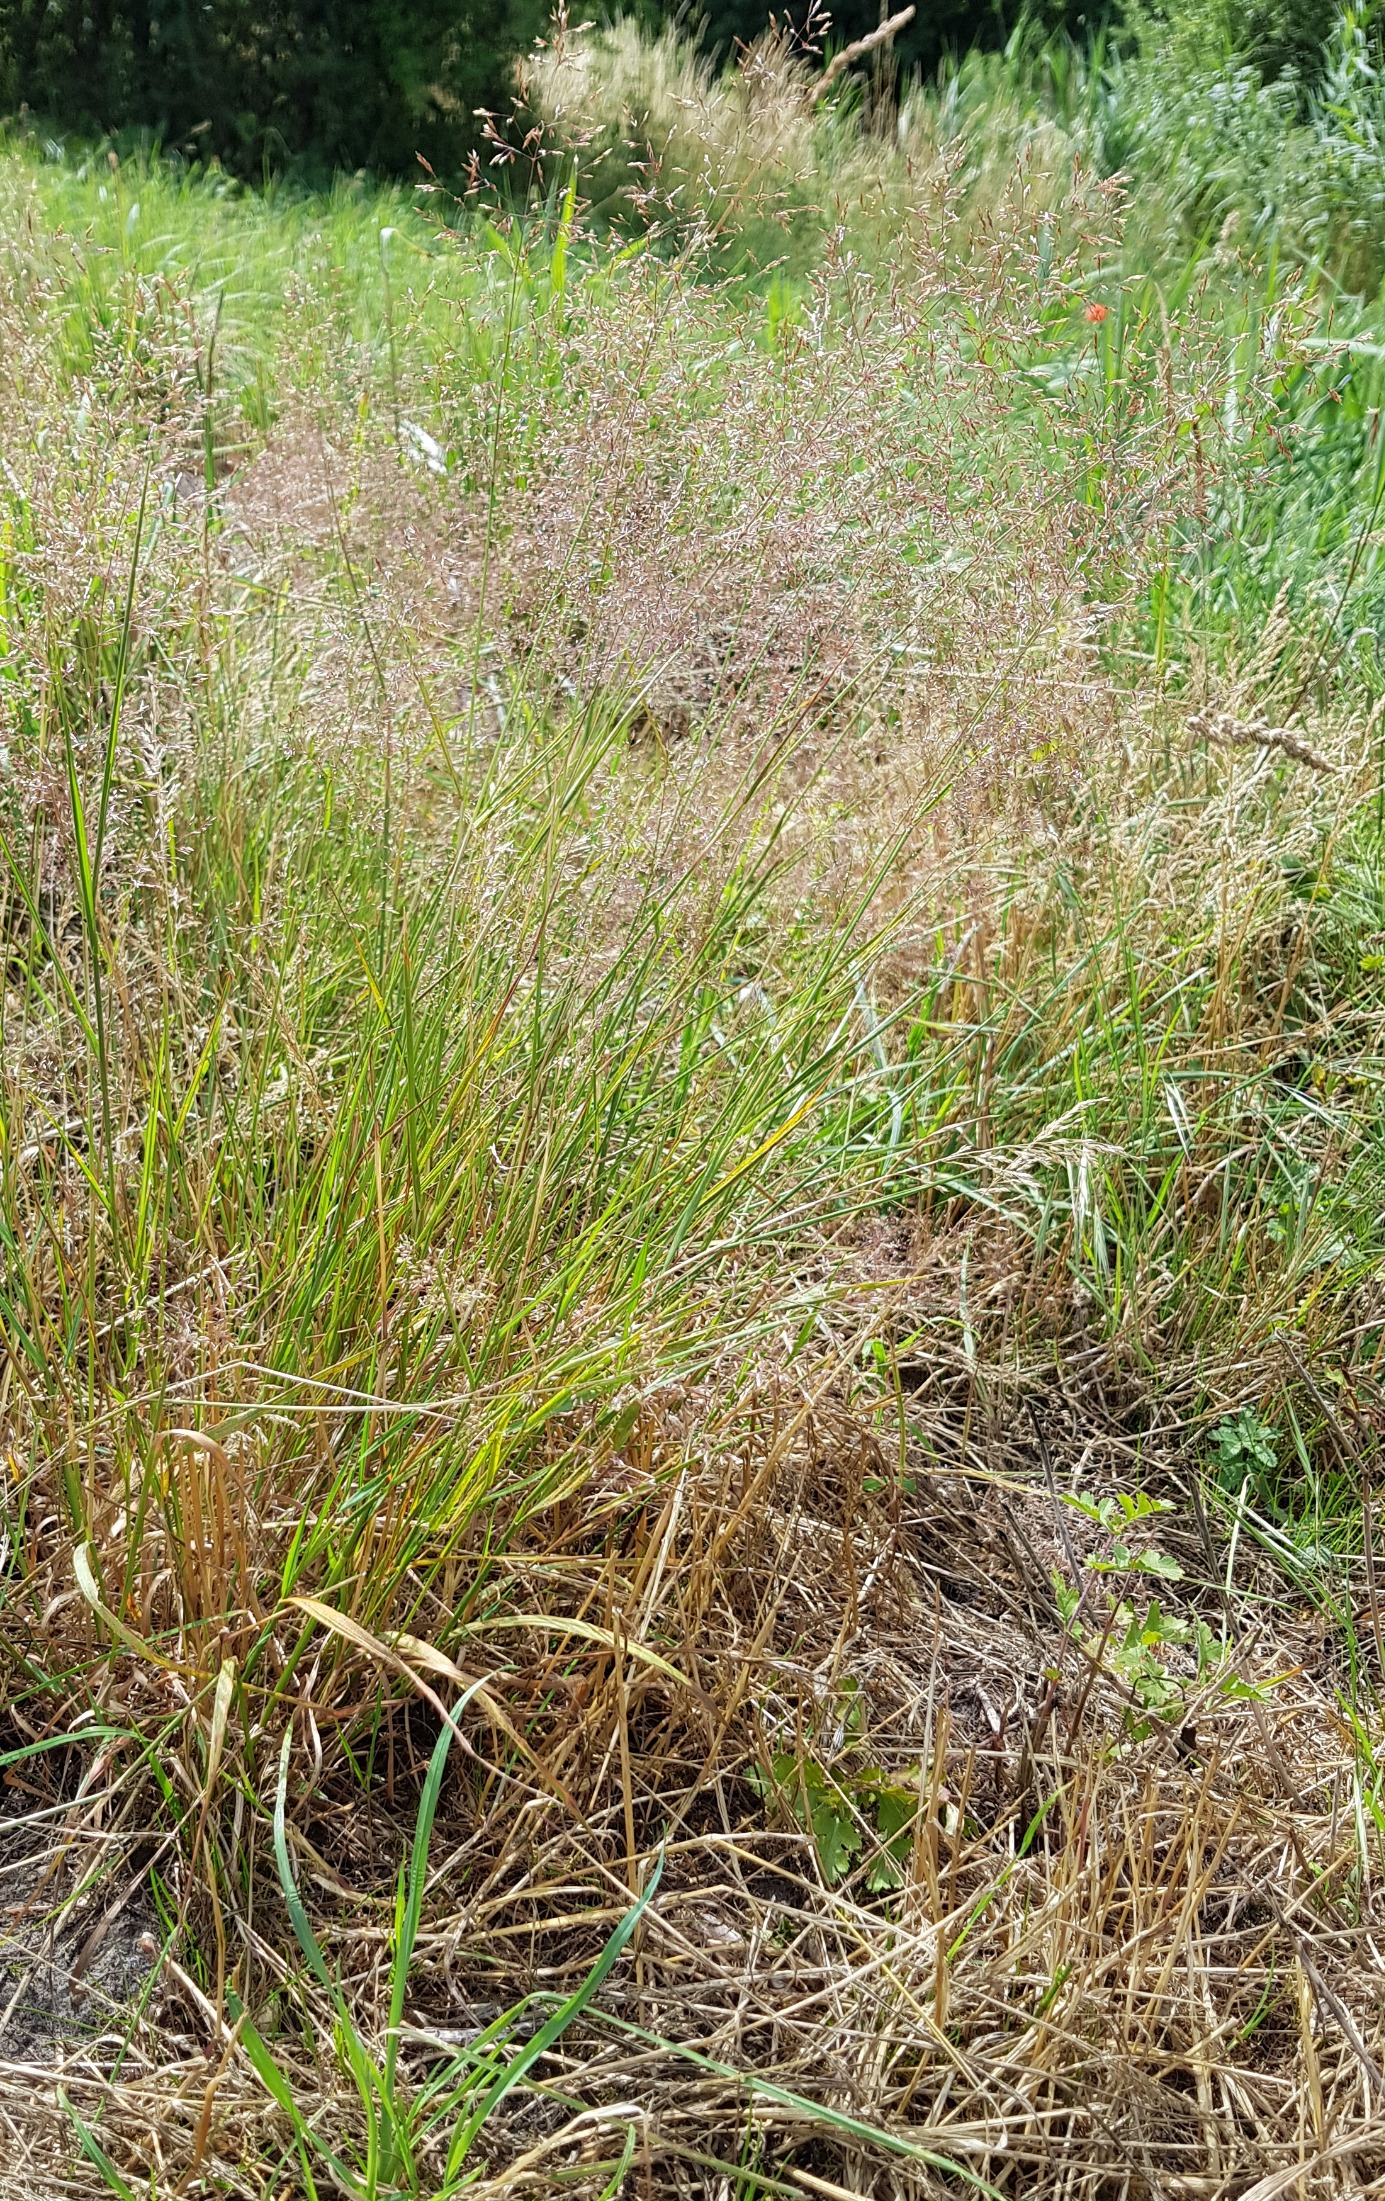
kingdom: Plantae
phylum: Tracheophyta
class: Liliopsida
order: Poales
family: Poaceae
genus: Agrostis
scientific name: Agrostis capillaris
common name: Almindelig hvene
